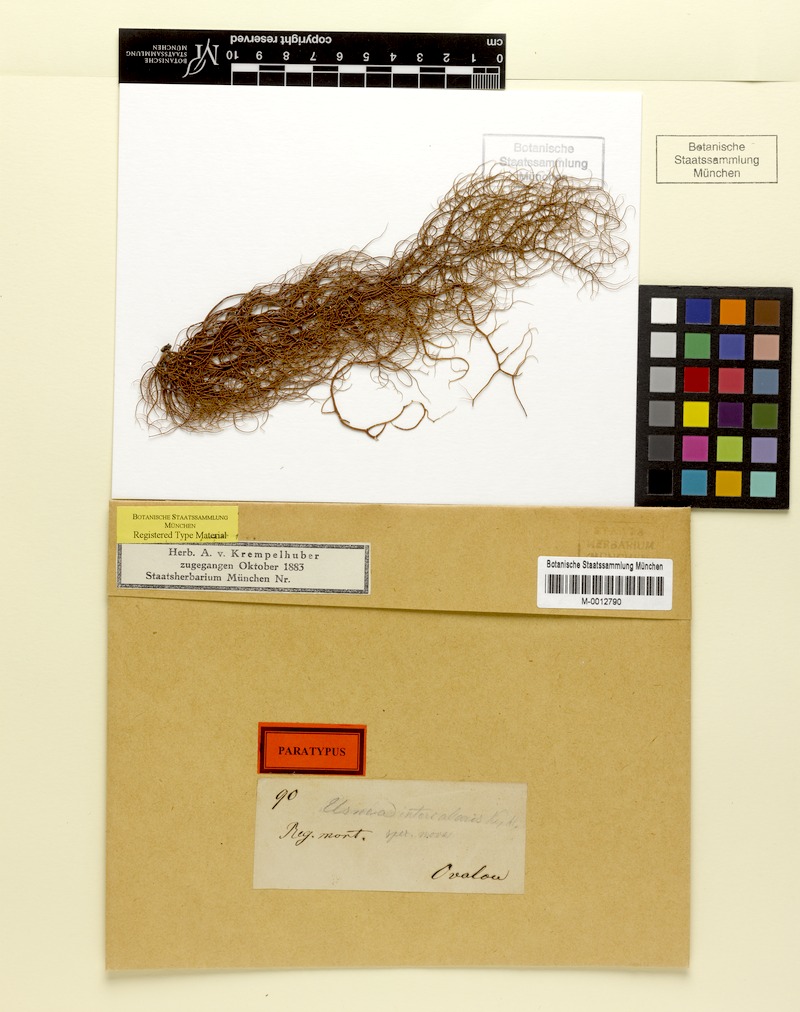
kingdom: Fungi
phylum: Ascomycota
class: Lecanoromycetes
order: Lecanorales
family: Parmeliaceae
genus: Usnea
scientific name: Usnea nidifica
